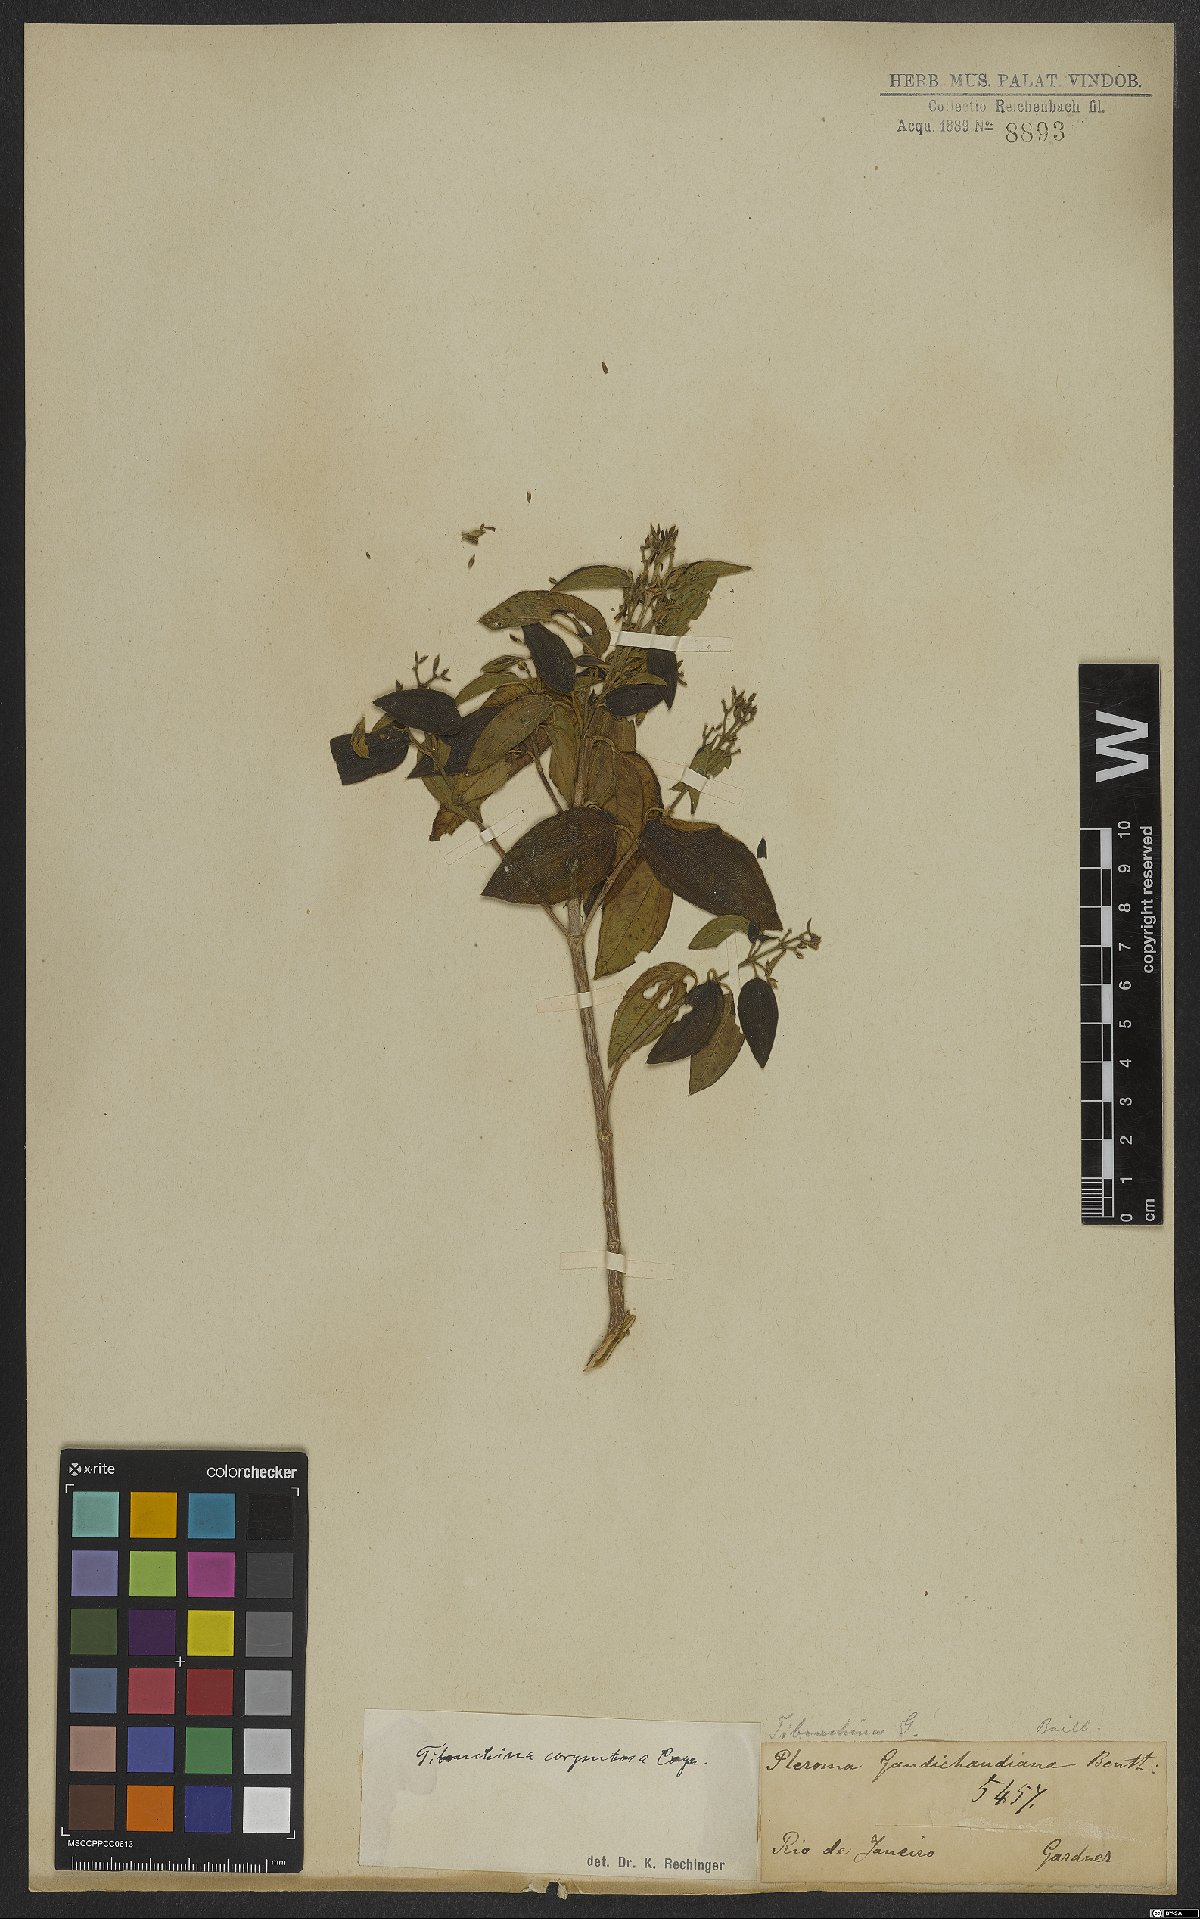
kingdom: Plantae
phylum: Tracheophyta
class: Magnoliopsida
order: Myrtales
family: Melastomataceae
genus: Pleroma
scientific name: Pleroma vimineum
